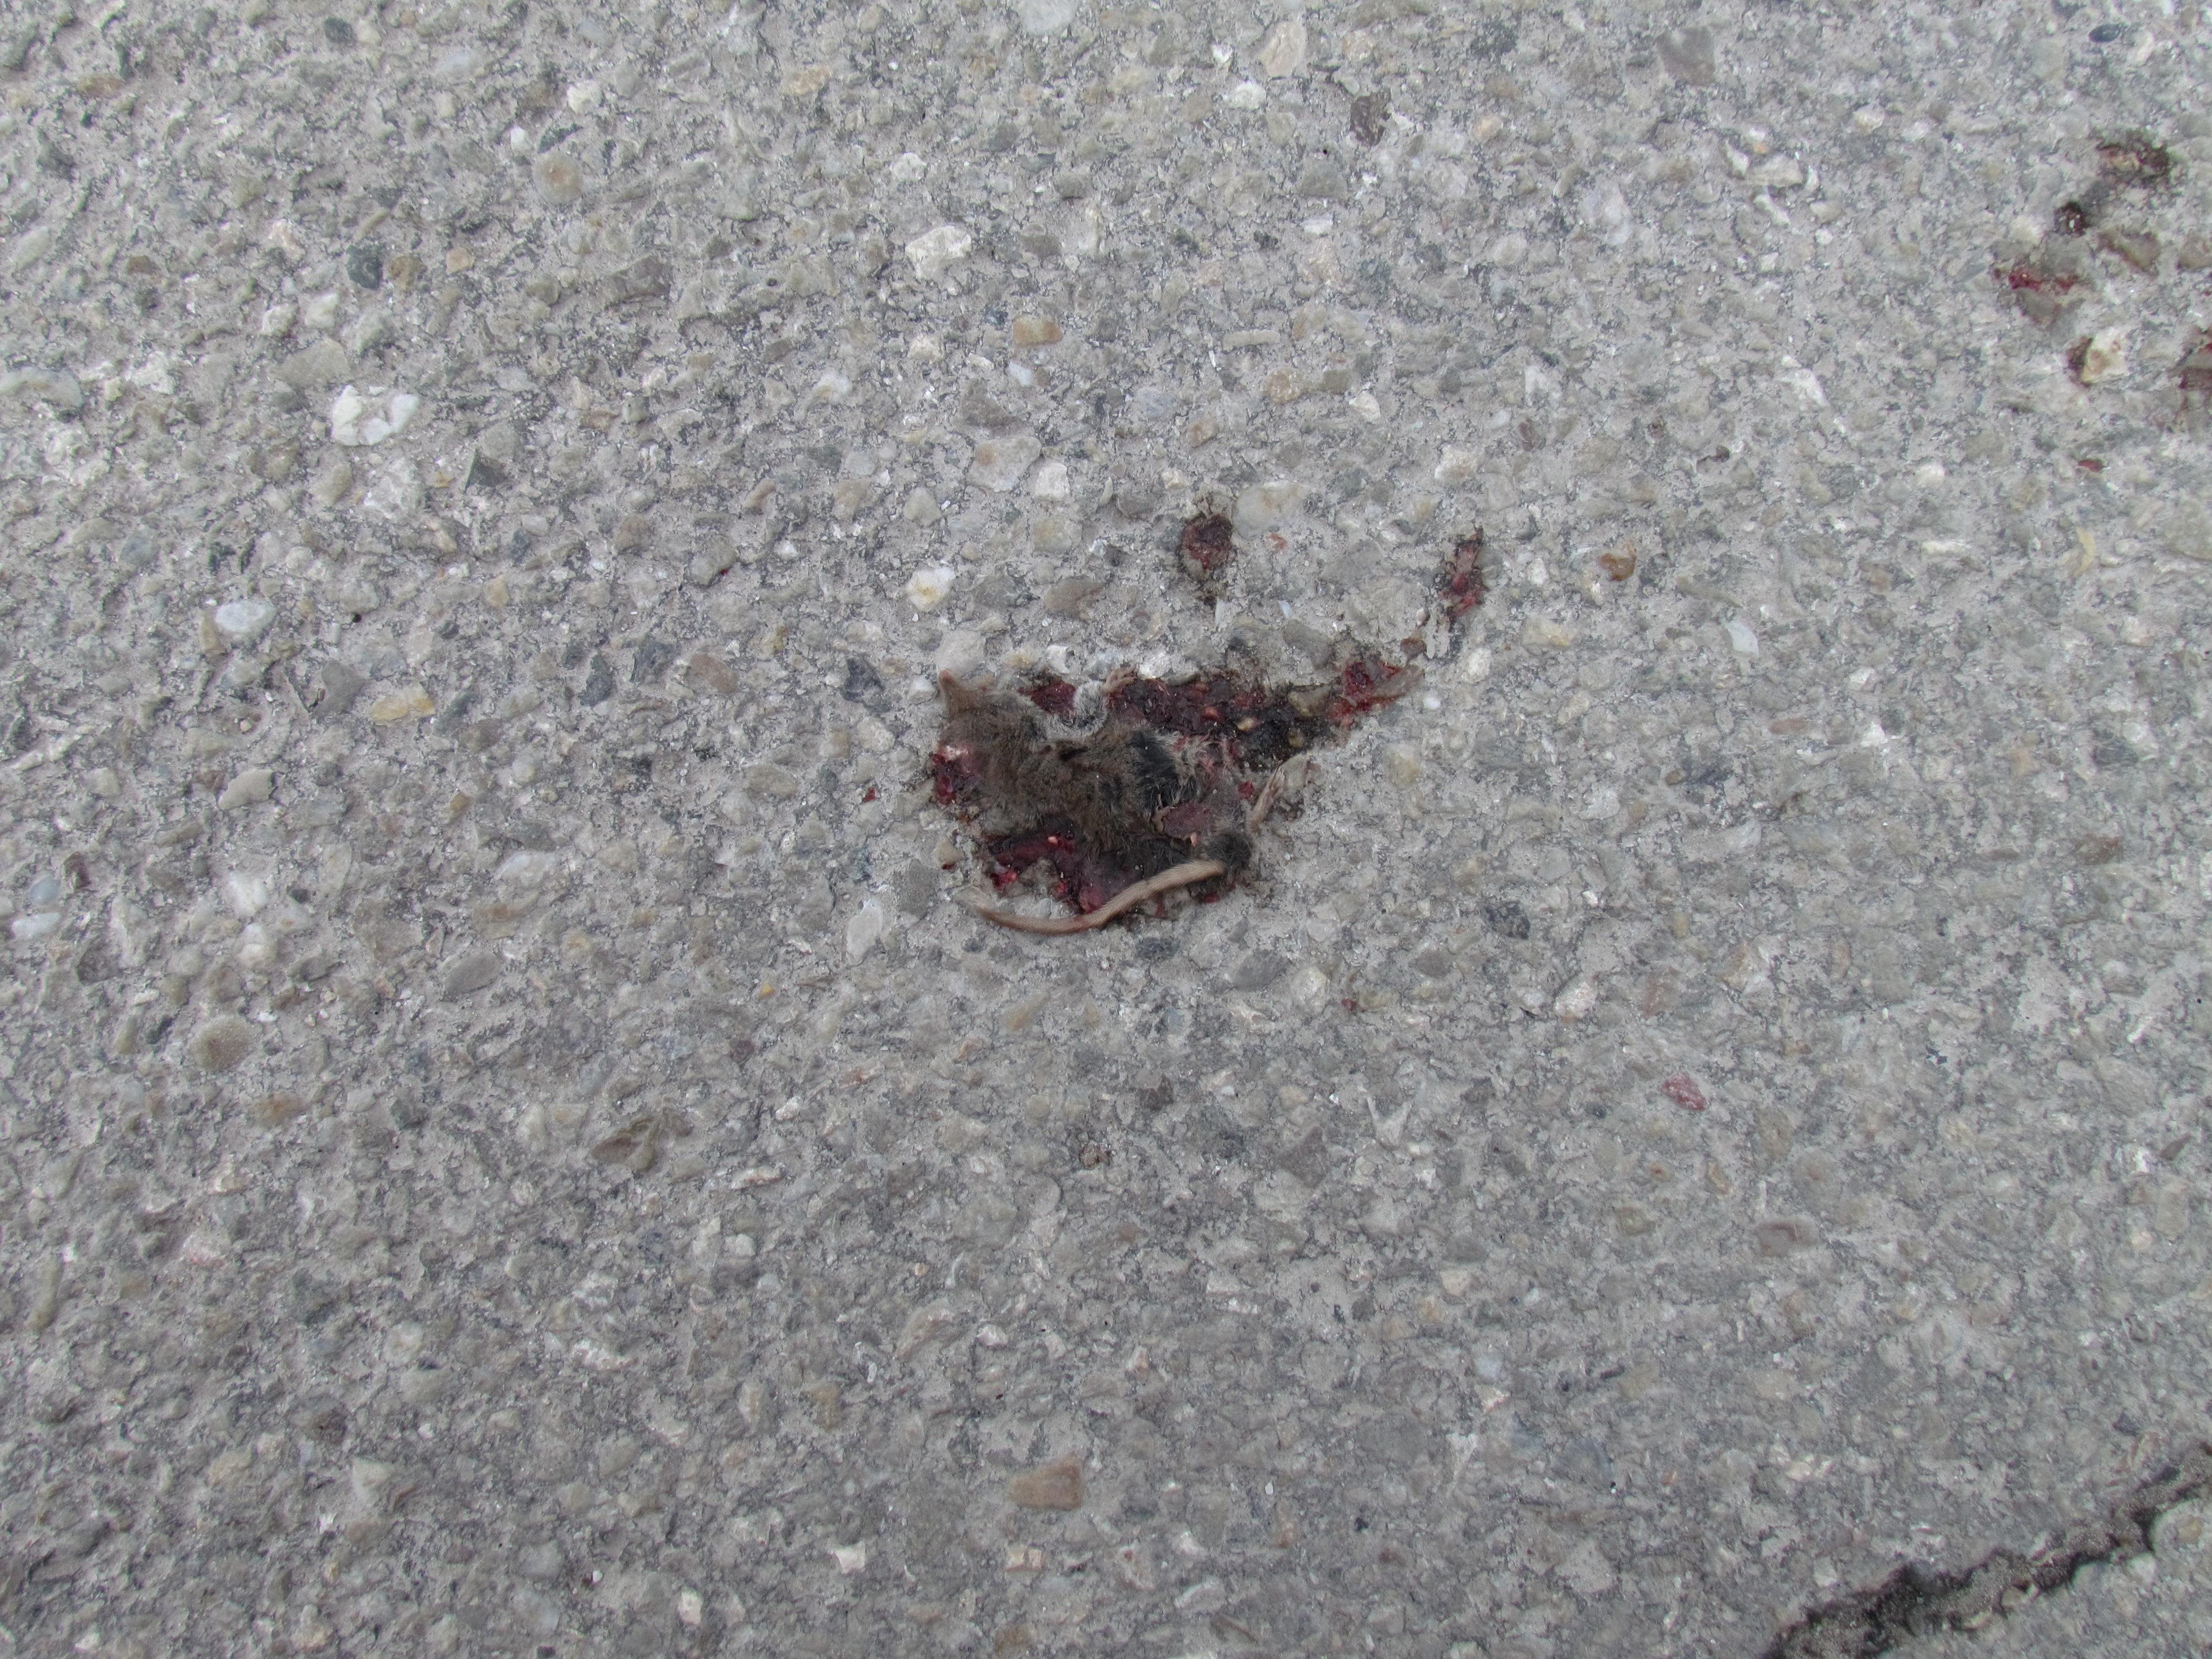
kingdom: Animalia
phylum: Chordata
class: Mammalia
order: Soricomorpha
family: Soricidae
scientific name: Soricidae
